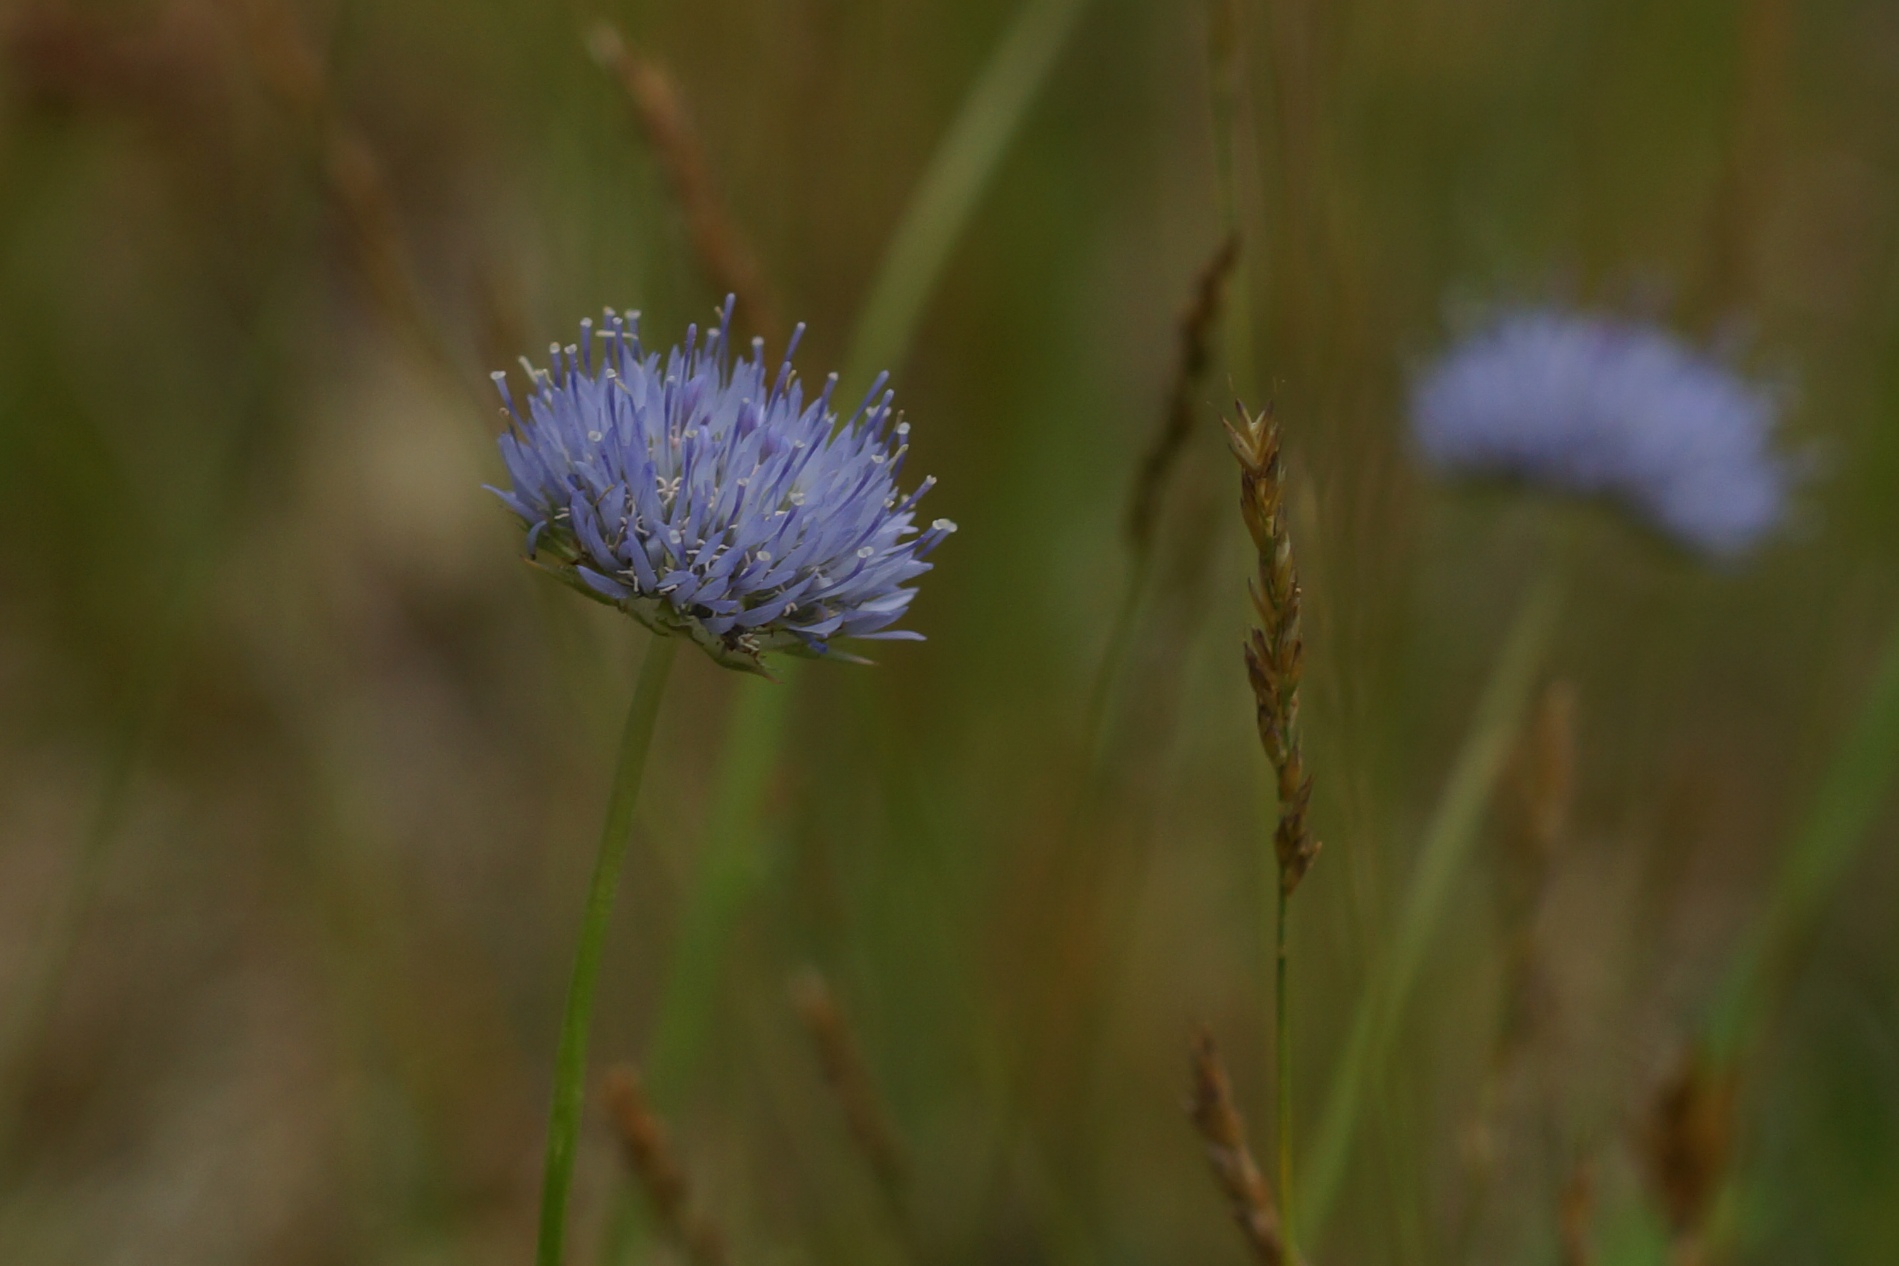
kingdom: Plantae
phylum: Tracheophyta
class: Magnoliopsida
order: Asterales
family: Campanulaceae
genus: Jasione
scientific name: Jasione montana
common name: Blåmunke
